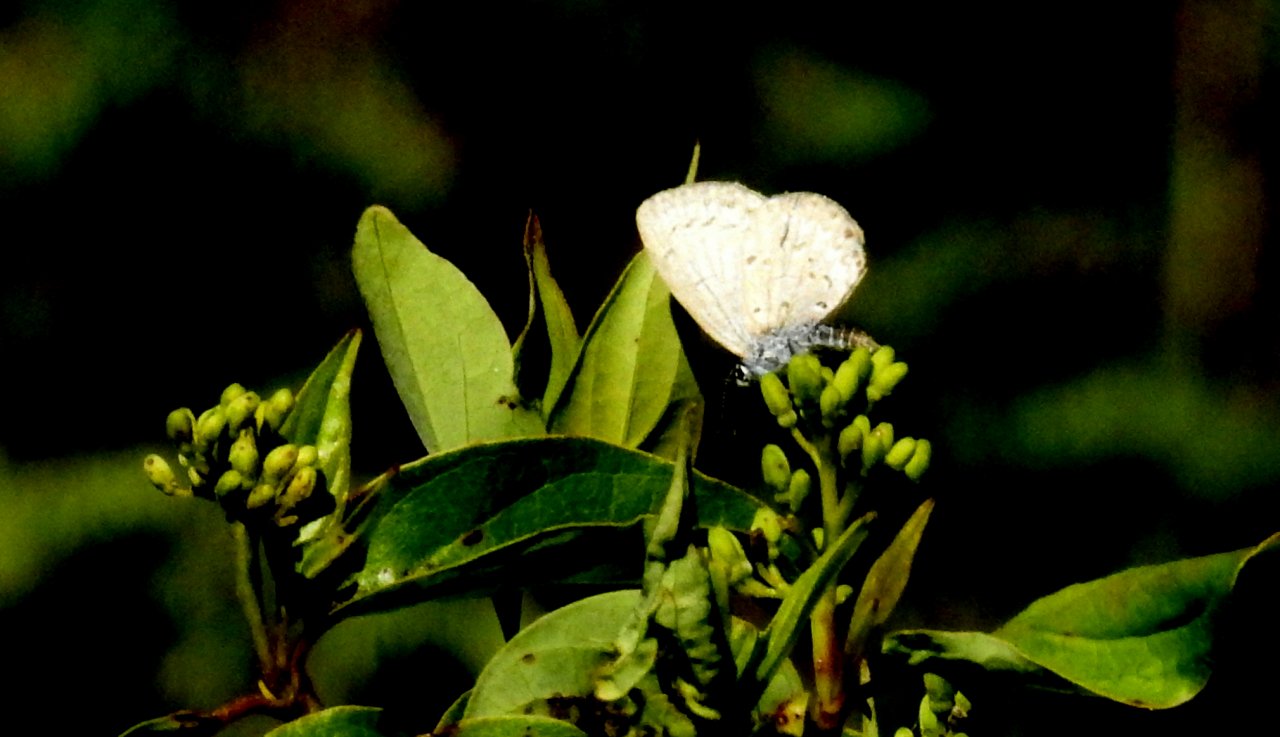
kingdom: Animalia
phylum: Arthropoda
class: Insecta
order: Lepidoptera
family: Lycaenidae
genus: Celastrina
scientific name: Celastrina lucia
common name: Northern Spring Azure
